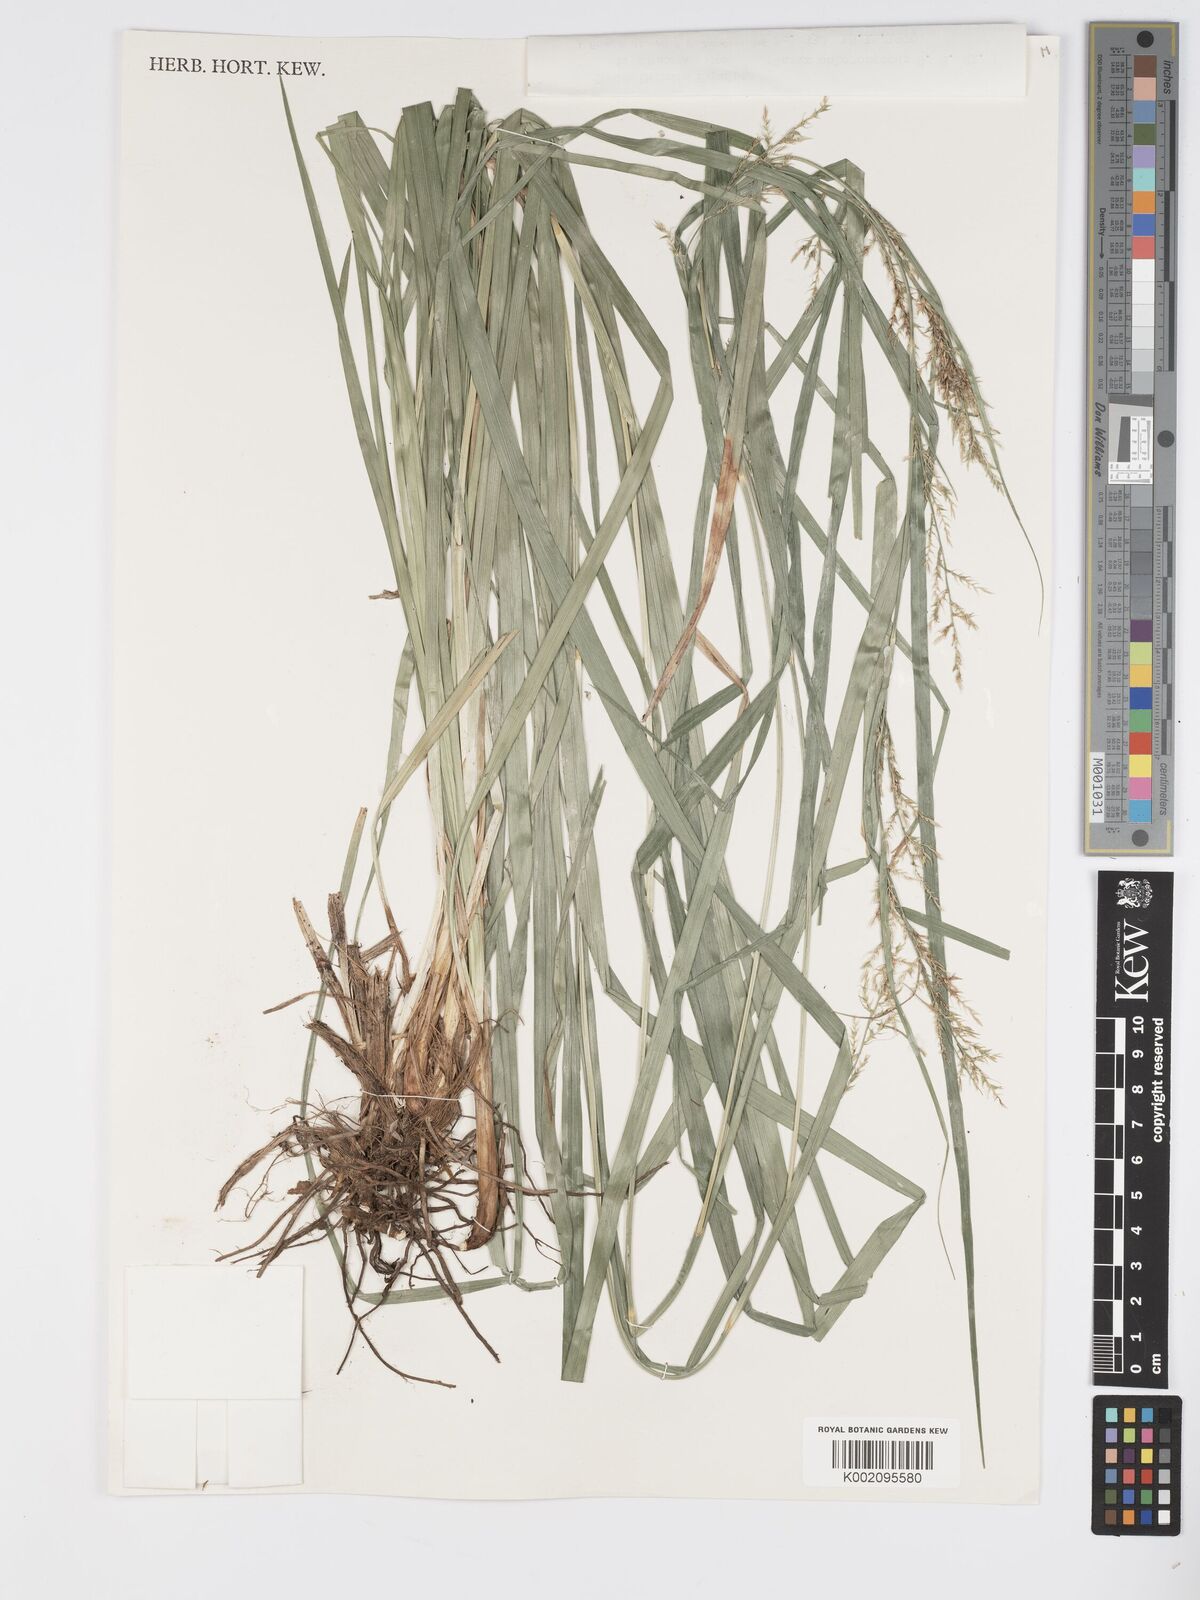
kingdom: Plantae
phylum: Tracheophyta
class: Liliopsida
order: Poales
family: Cyperaceae
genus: Carex
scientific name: Carex chlorosaccus
